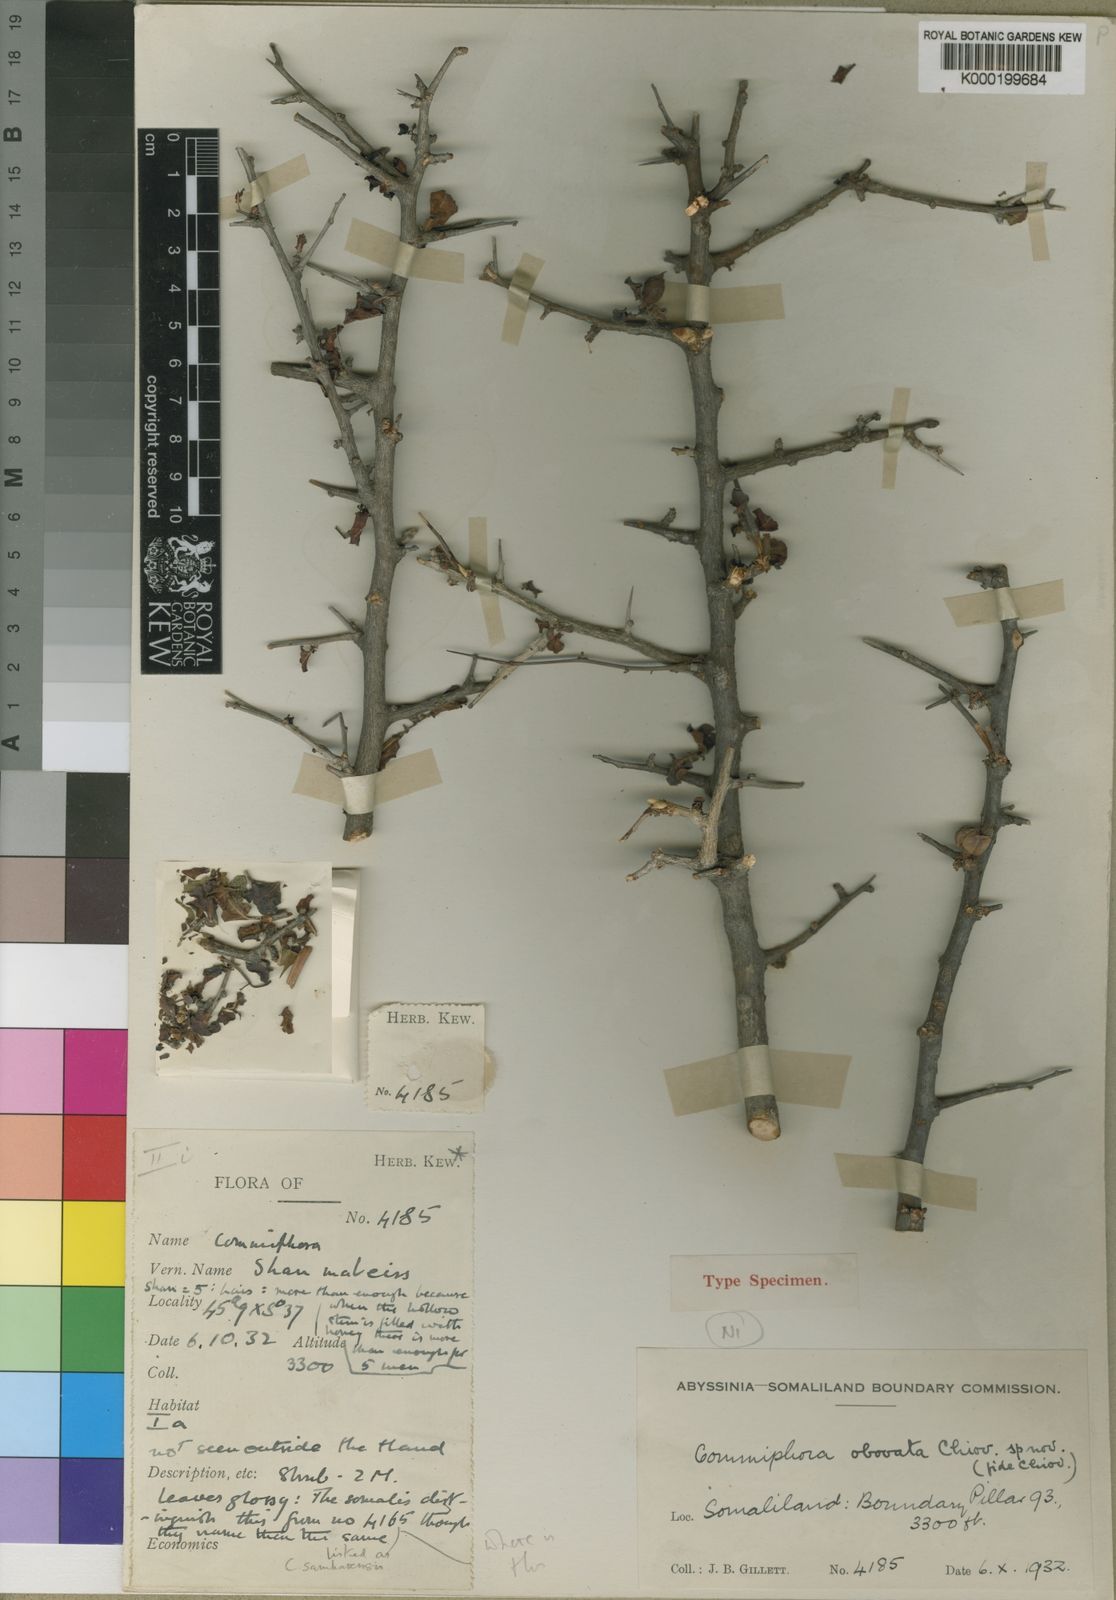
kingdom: Plantae
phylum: Tracheophyta
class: Magnoliopsida
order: Sapindales
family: Burseraceae
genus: Commiphora
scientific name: Commiphora obovata
